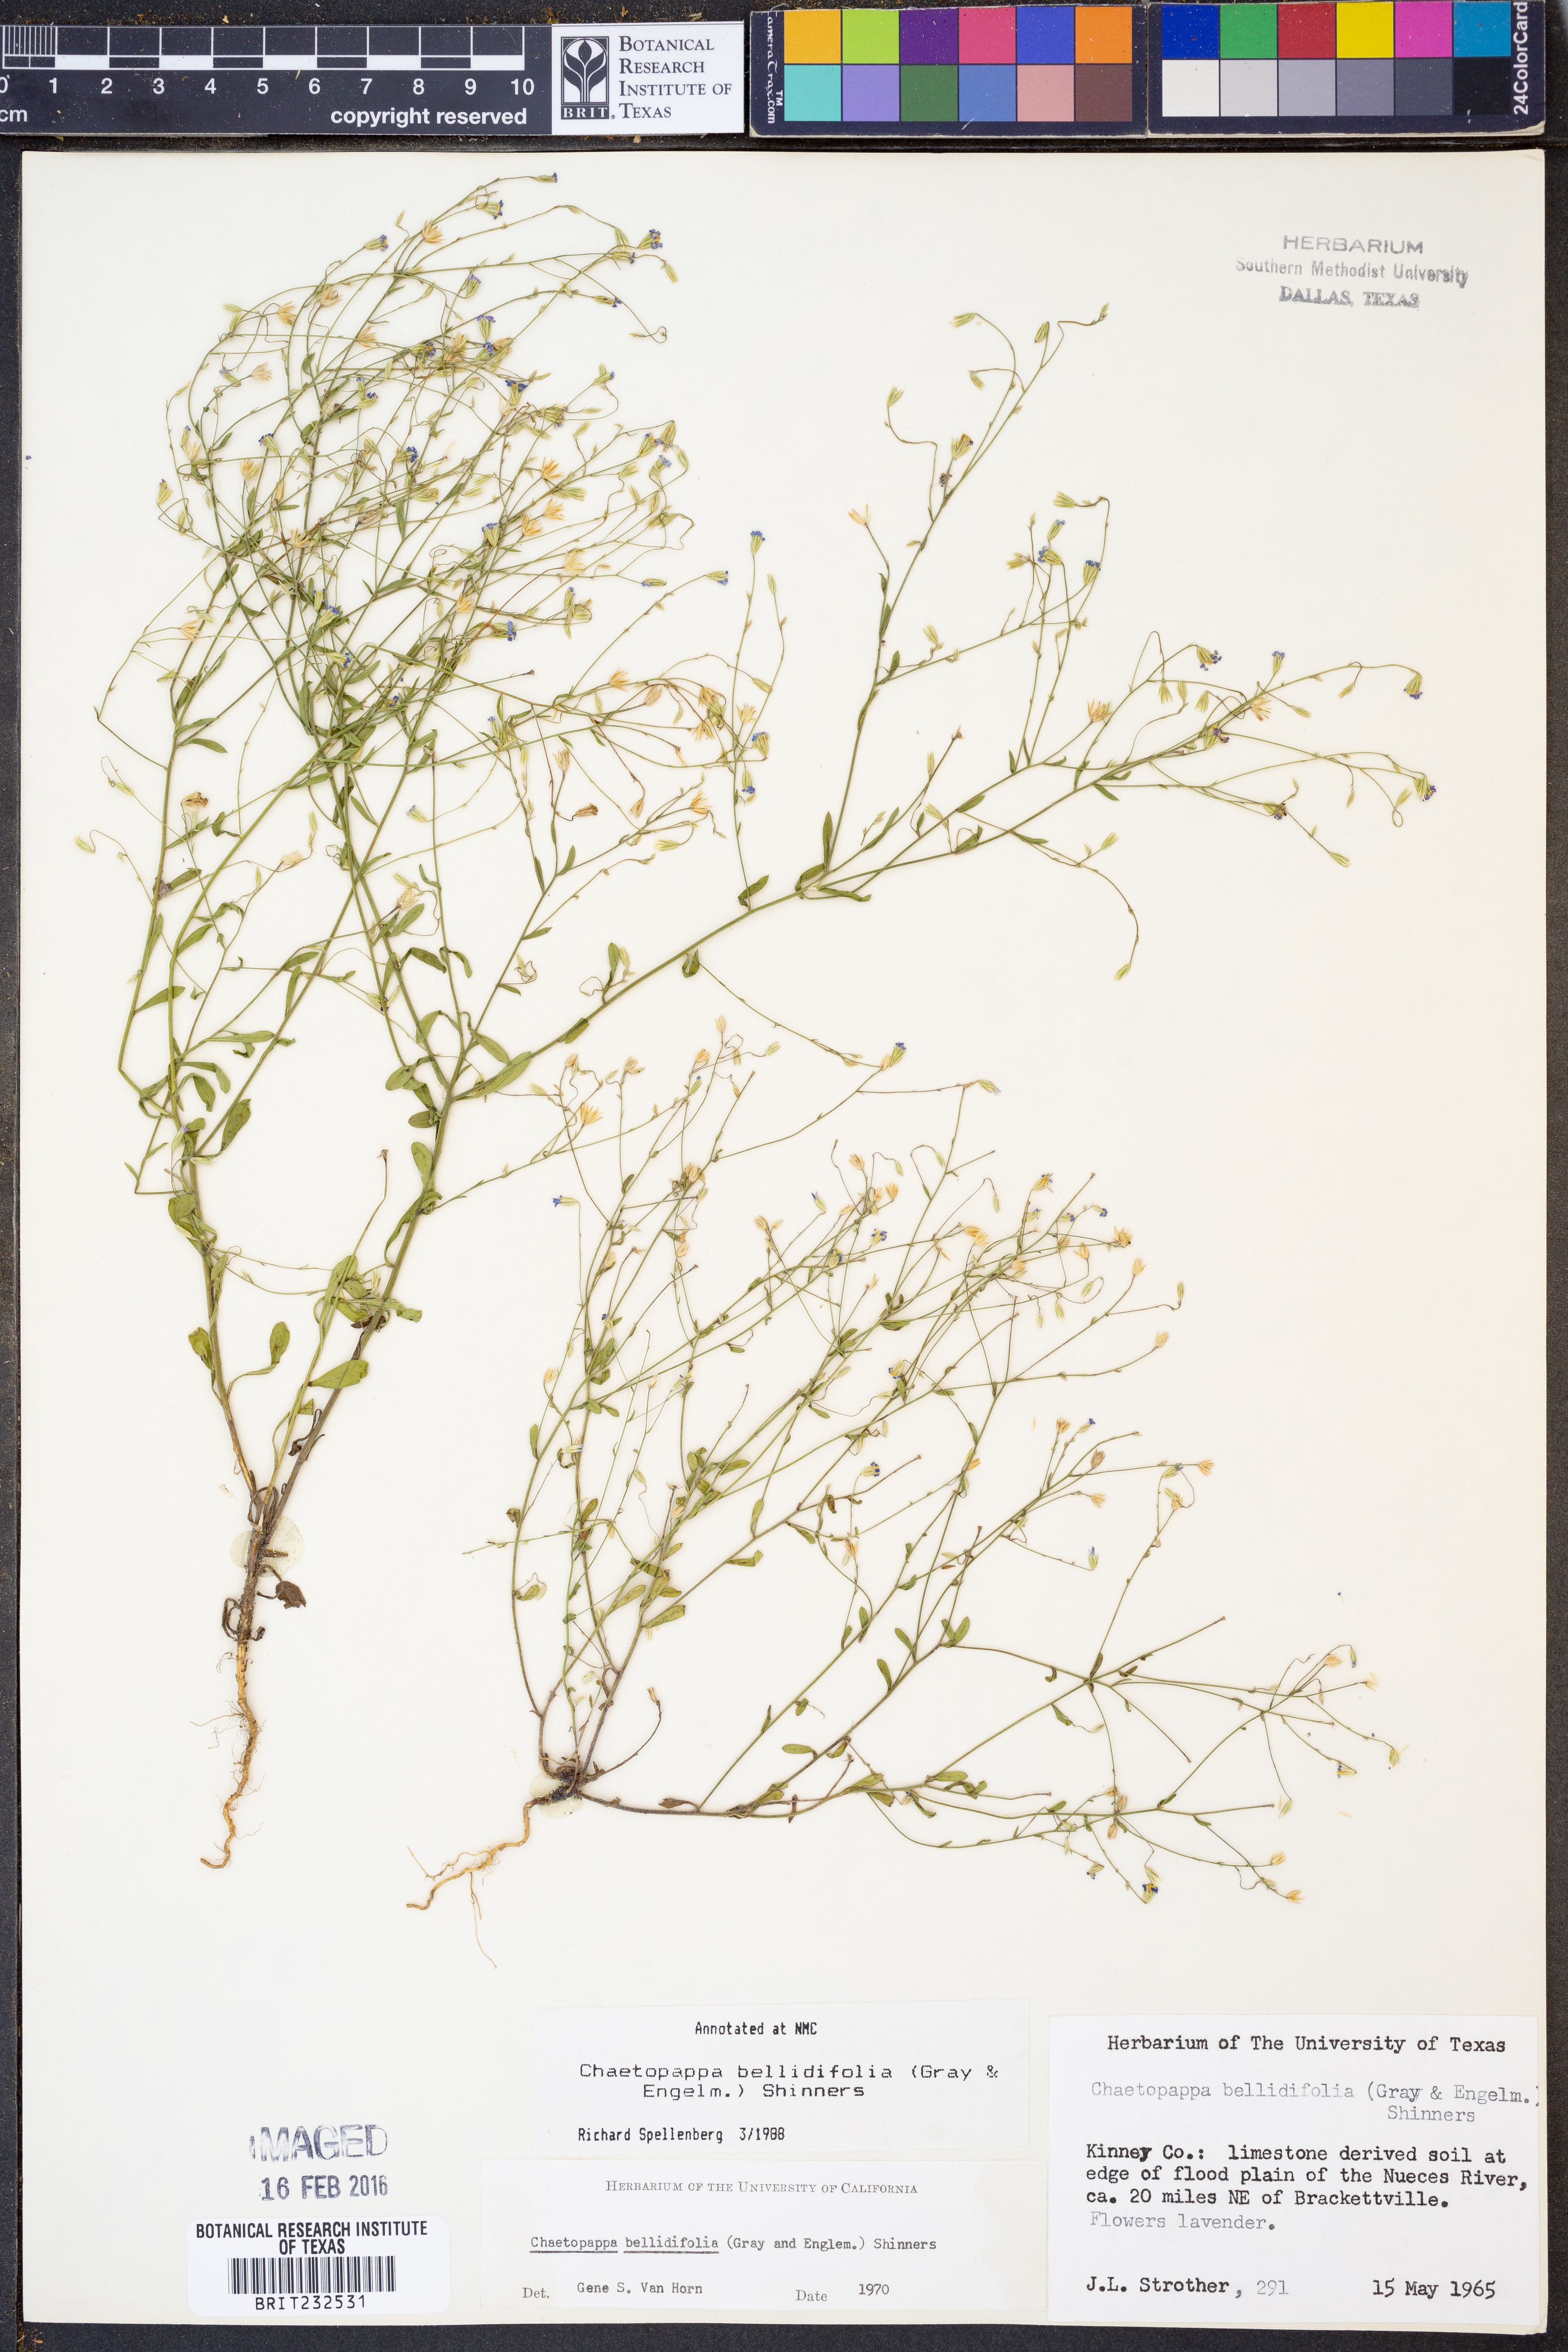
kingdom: Plantae
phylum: Tracheophyta
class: Magnoliopsida
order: Asterales
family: Asteraceae
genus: Chaetopappa
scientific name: Chaetopappa bellidifolia
